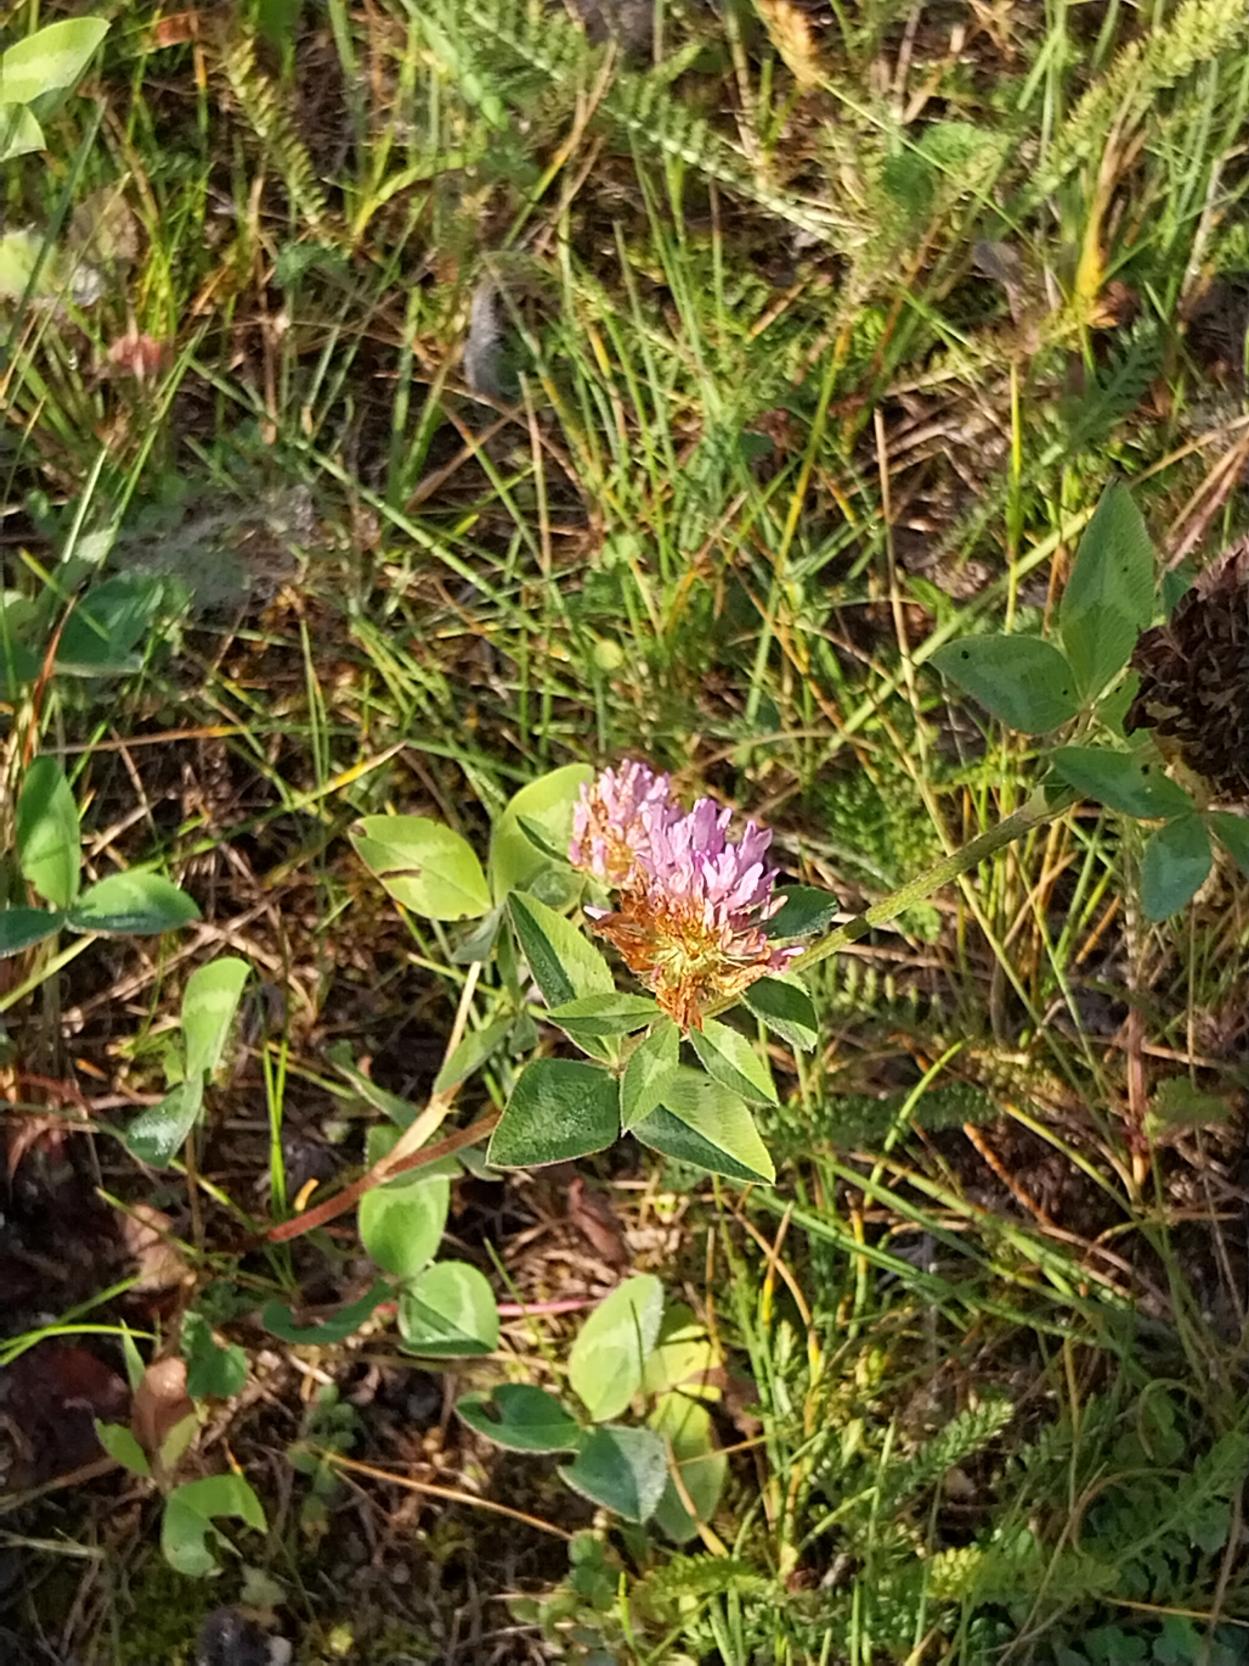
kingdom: Plantae
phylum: Tracheophyta
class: Magnoliopsida
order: Fabales
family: Fabaceae
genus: Trifolium
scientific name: Trifolium pratense
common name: Rød-kløver
